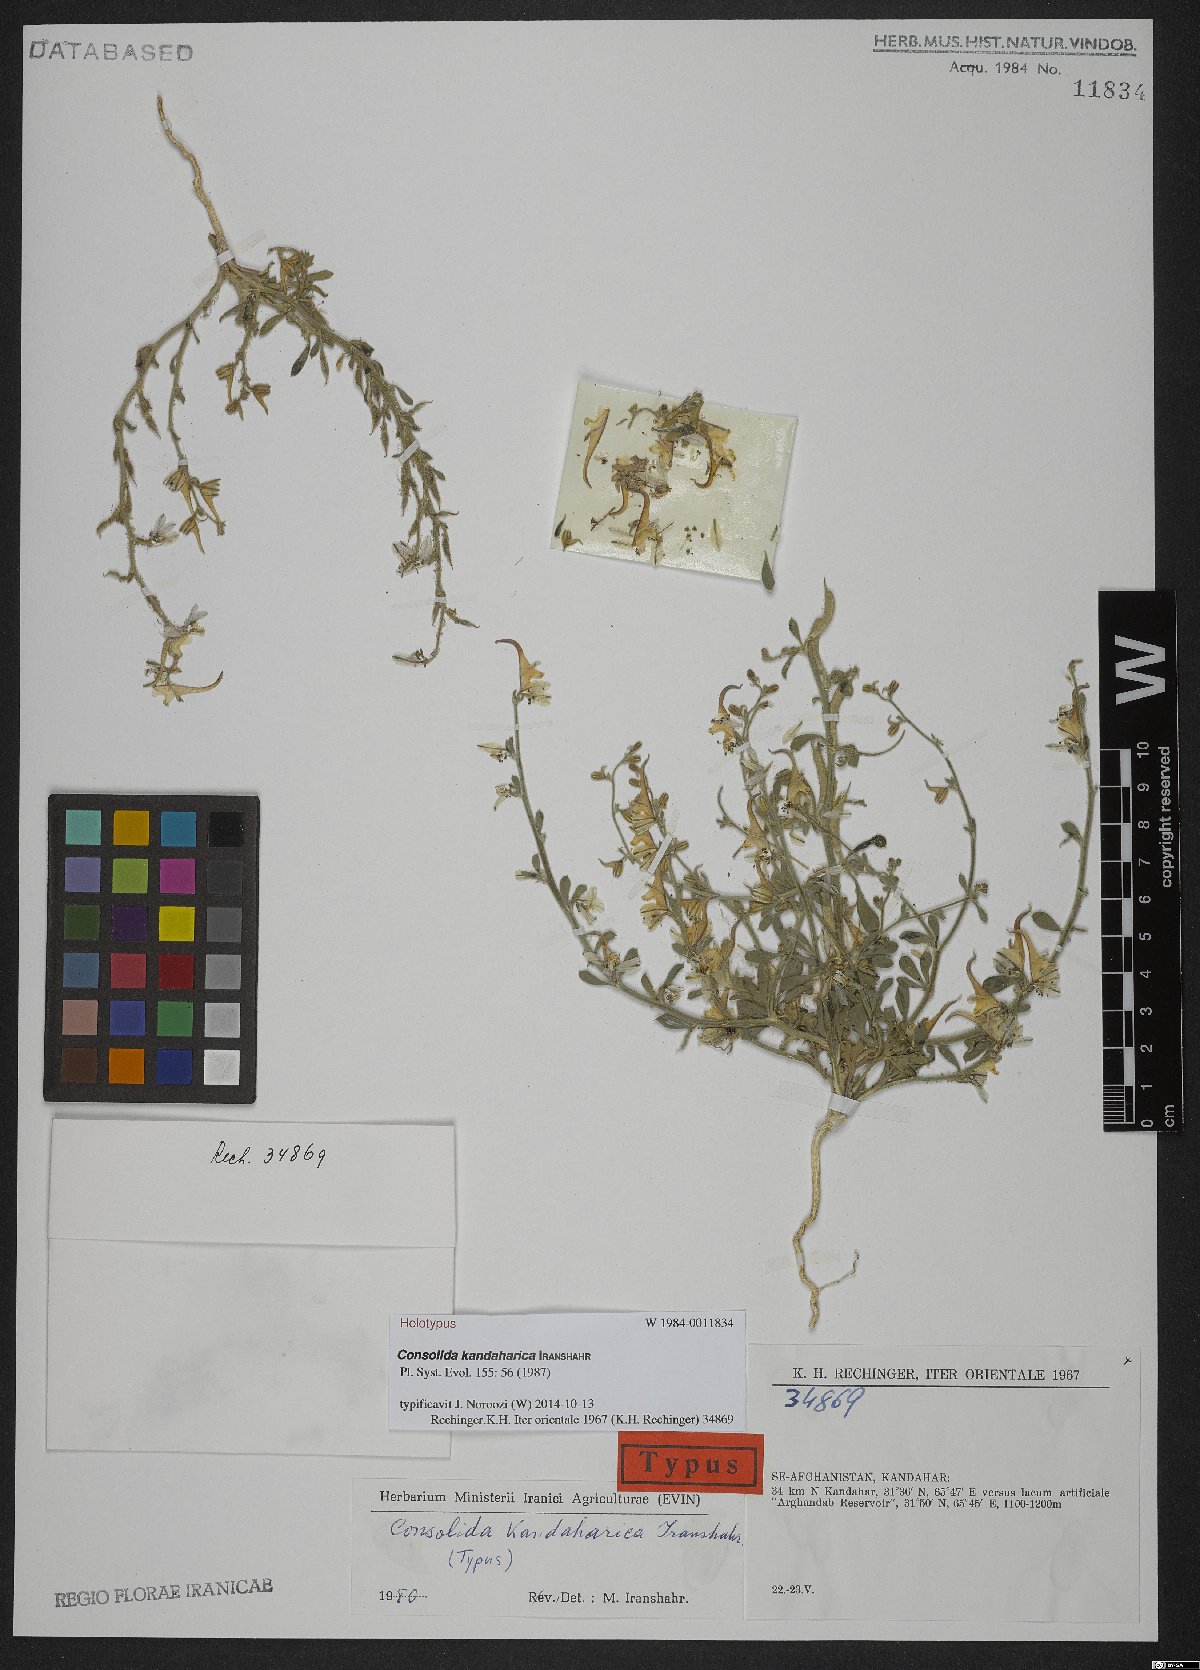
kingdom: Plantae
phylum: Tracheophyta
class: Magnoliopsida
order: Ranunculales
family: Ranunculaceae
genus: Delphinium
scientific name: Delphinium kandaharicum
